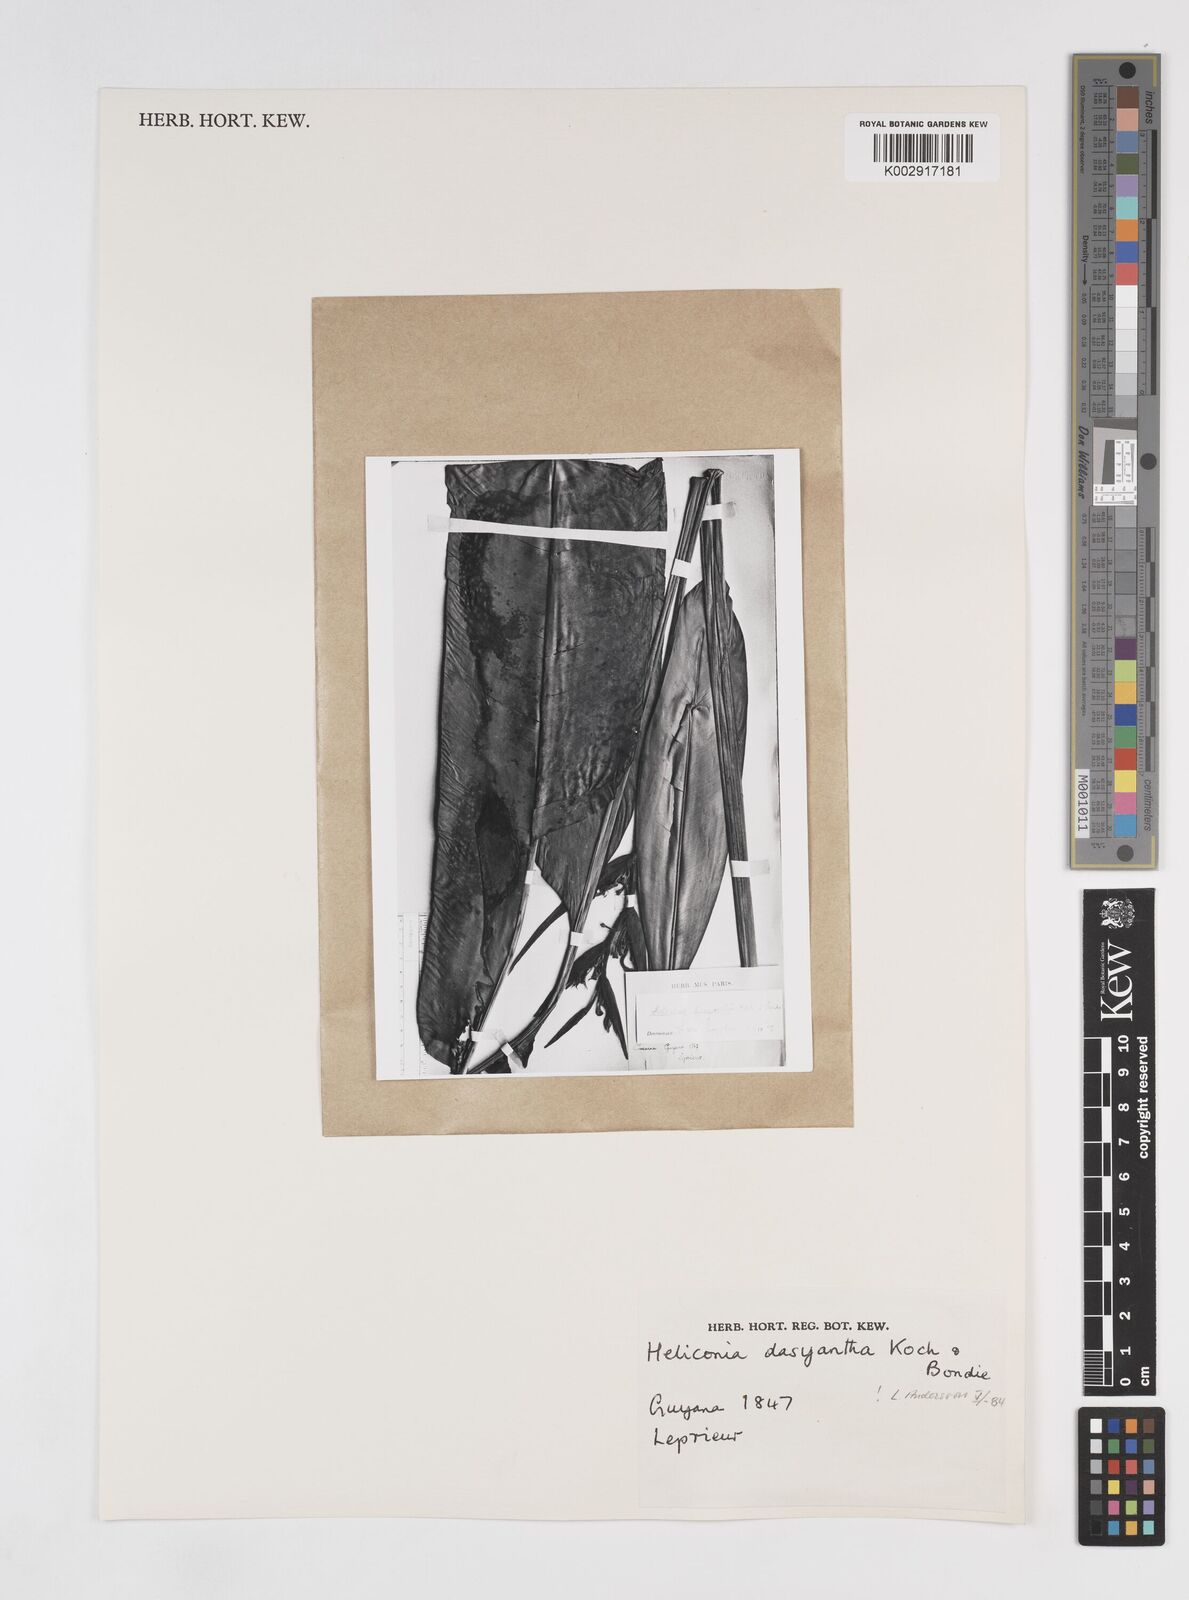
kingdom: Plantae
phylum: Tracheophyta
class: Liliopsida
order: Zingiberales
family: Heliconiaceae
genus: Heliconia
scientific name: Heliconia dasyantha
